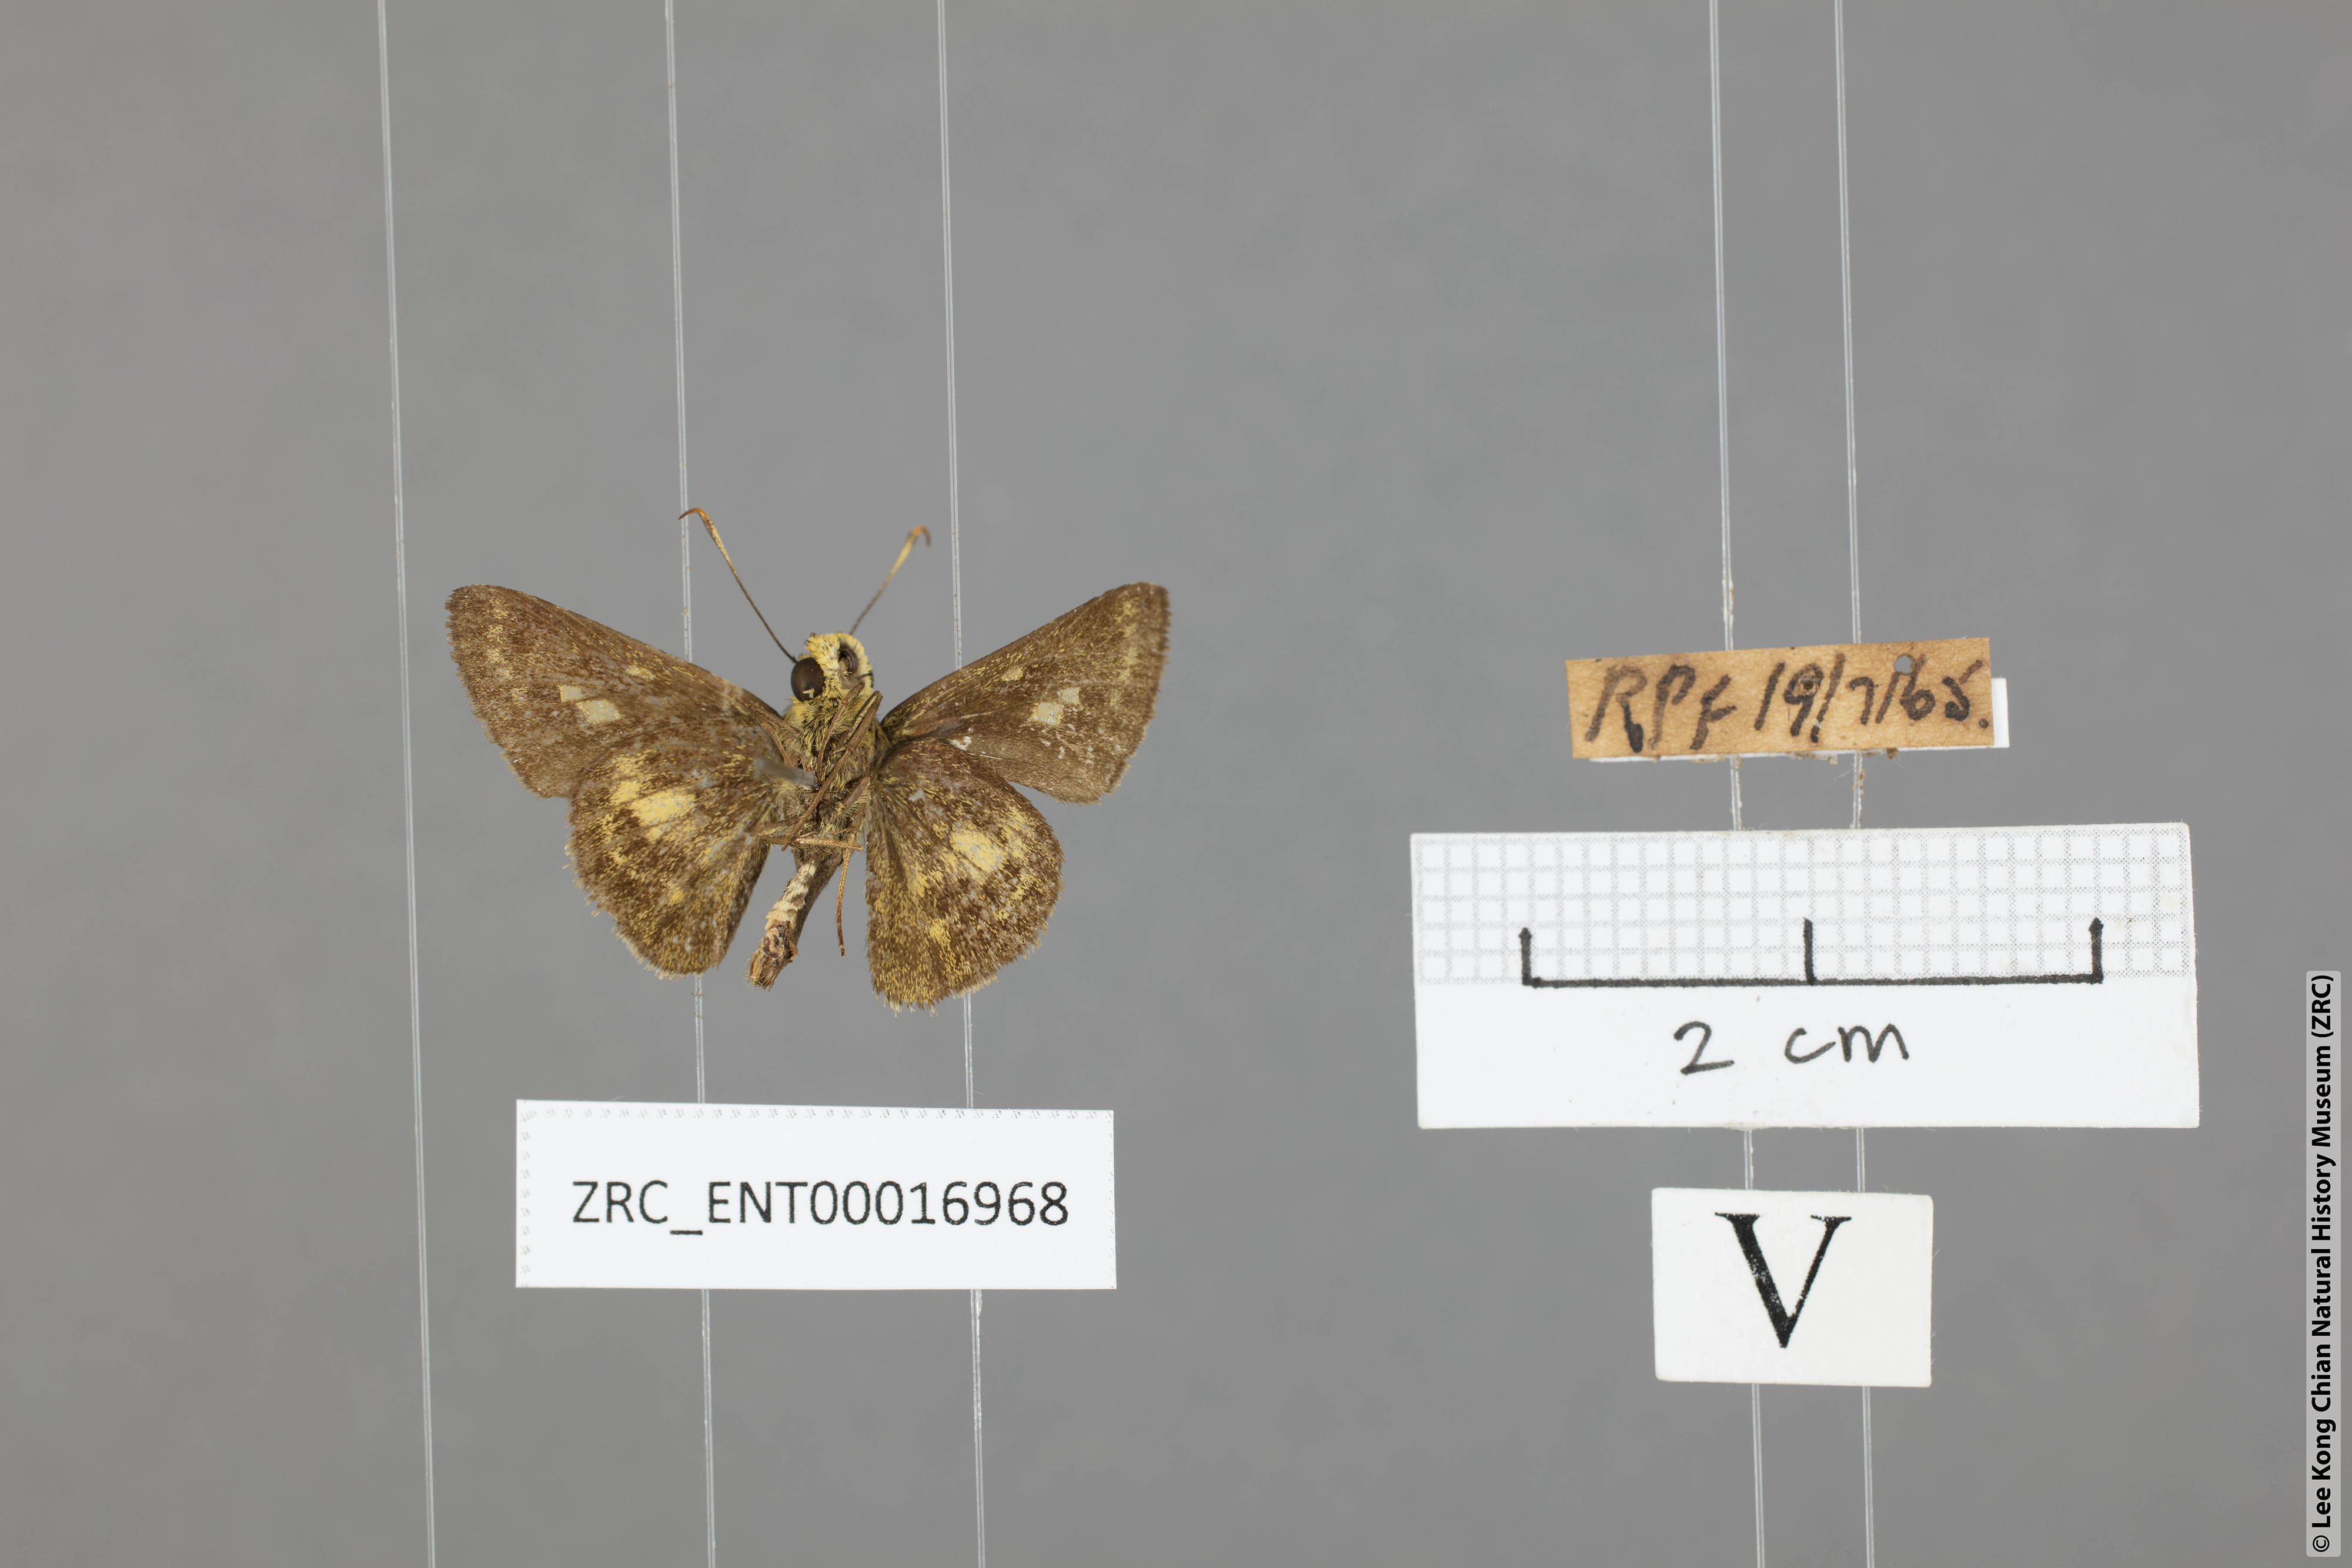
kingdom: Animalia
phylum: Arthropoda
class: Insecta
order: Lepidoptera
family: Hesperiidae
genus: Halpe
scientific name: Halpe auriferus
